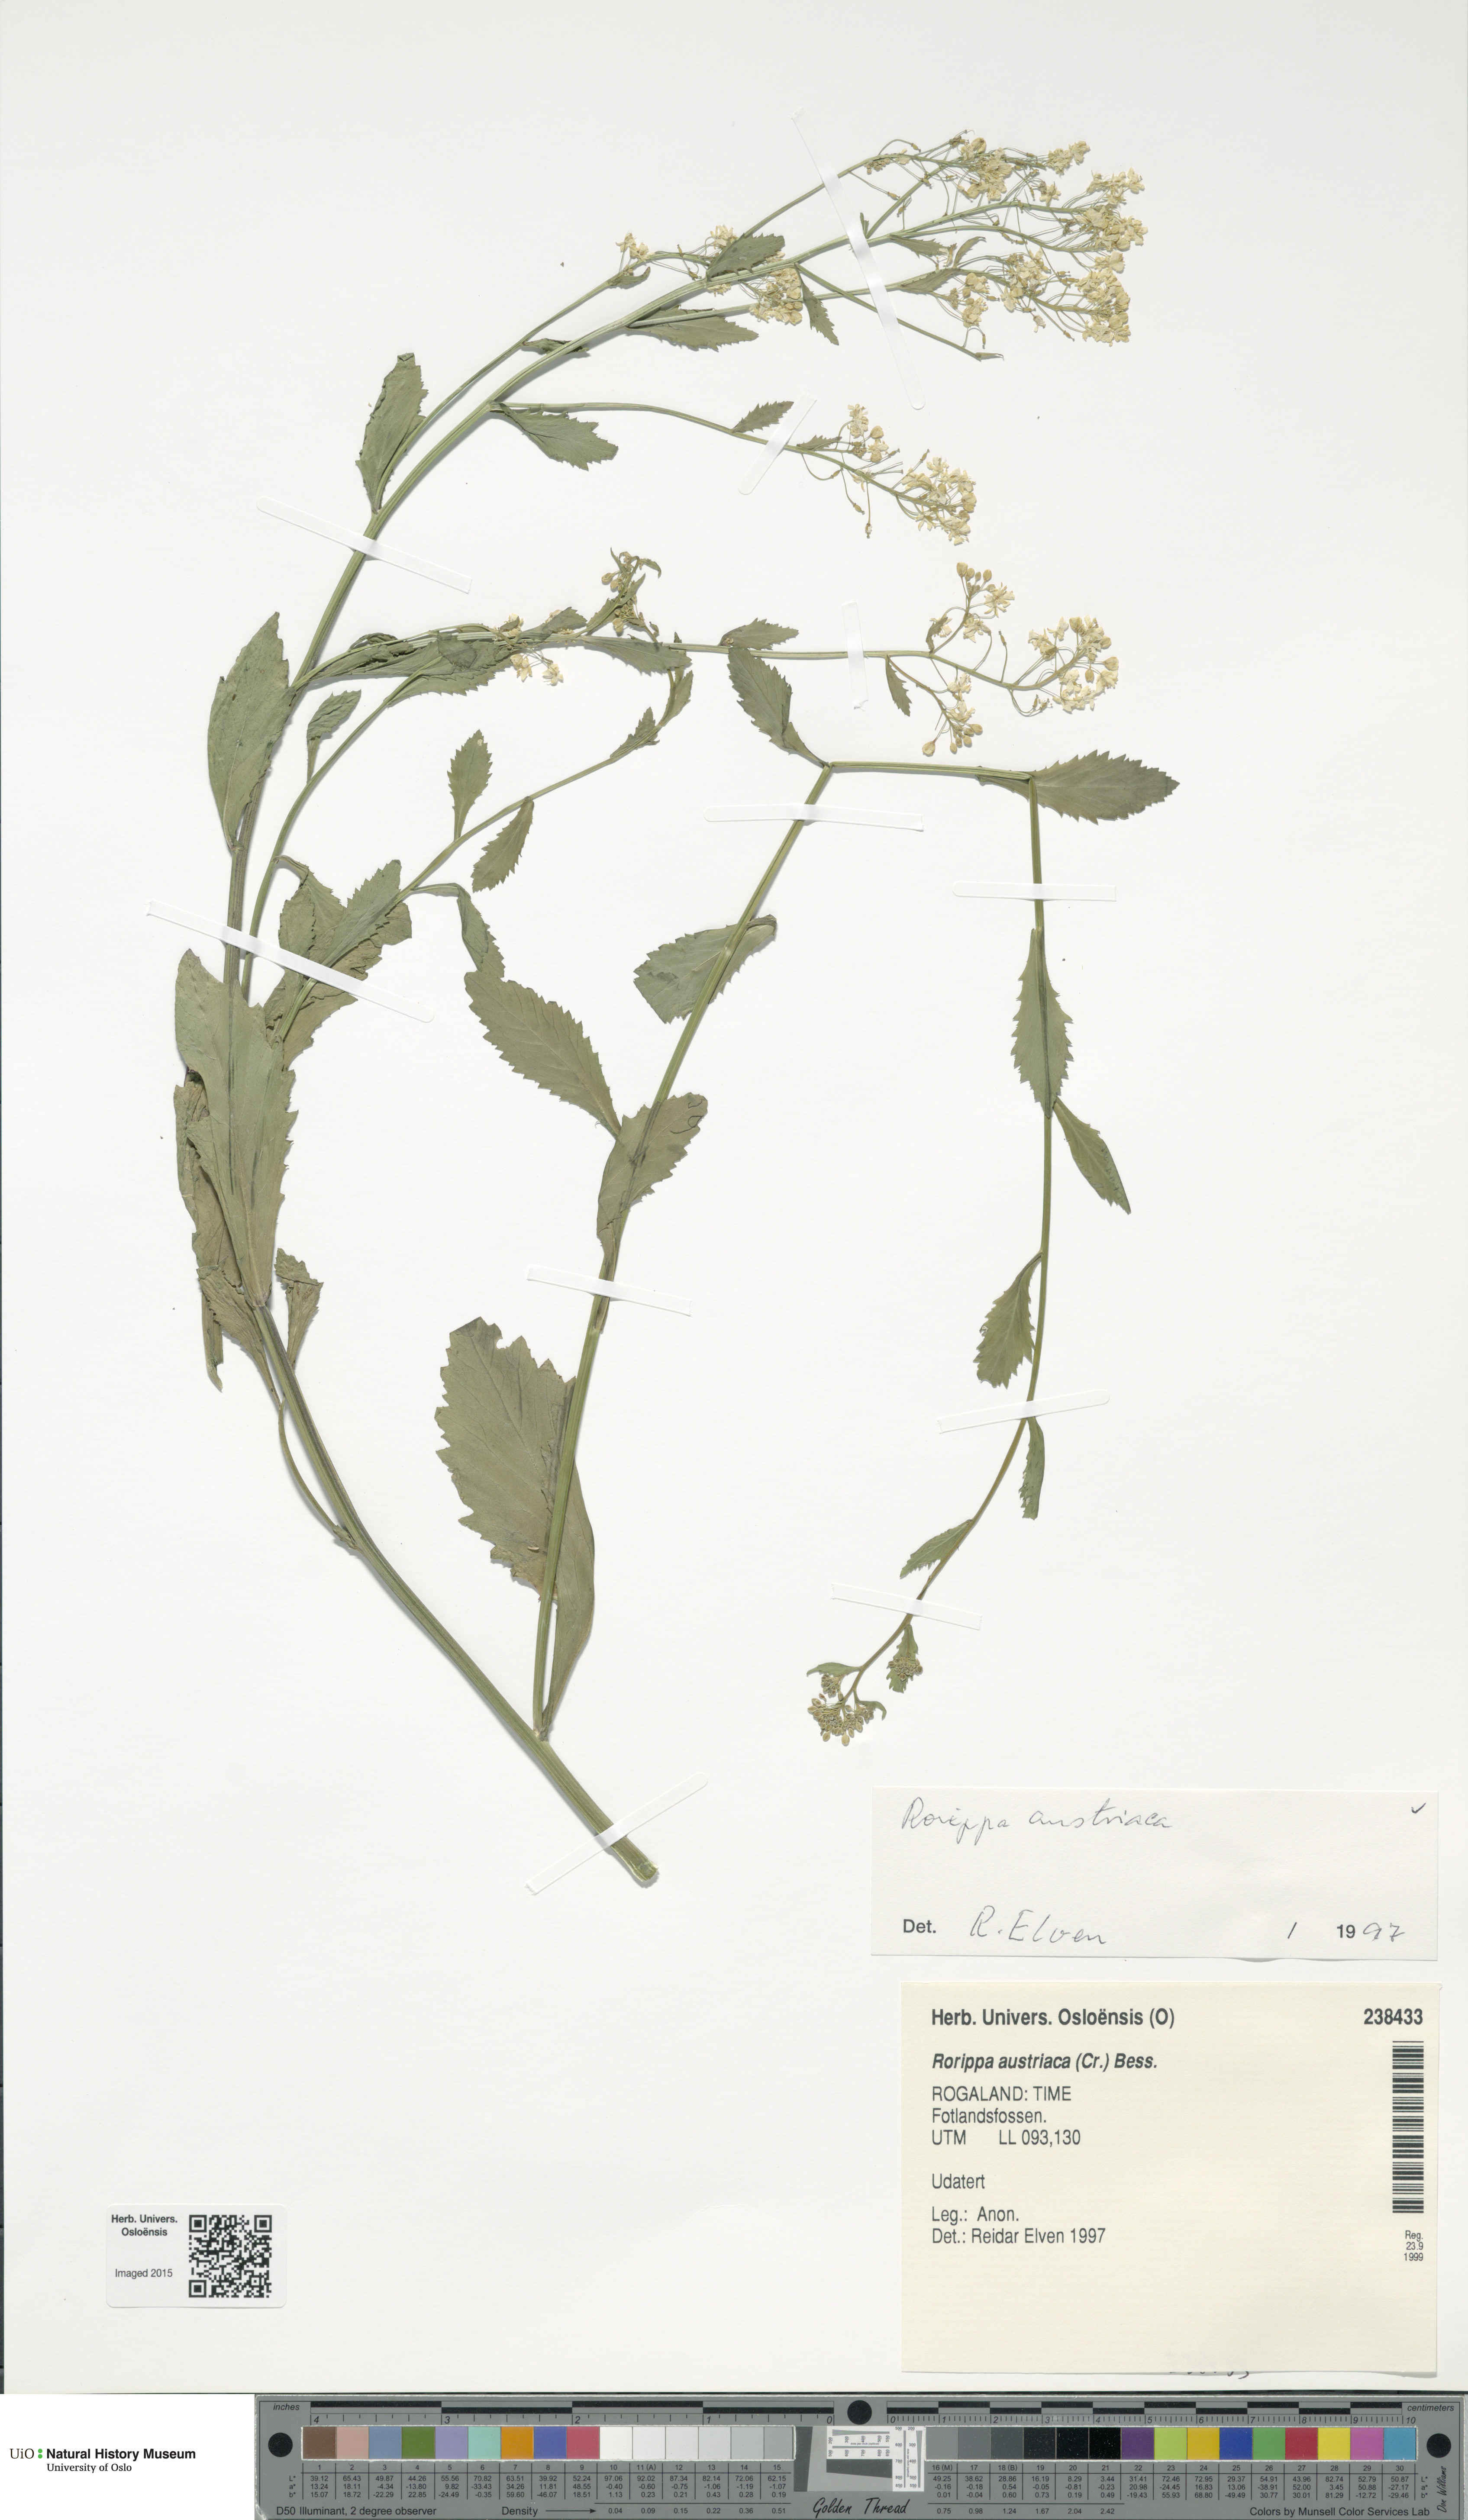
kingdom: Plantae
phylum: Tracheophyta
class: Magnoliopsida
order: Brassicales
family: Brassicaceae
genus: Rorippa
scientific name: Rorippa austriaca
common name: Austrian yellow-cress
